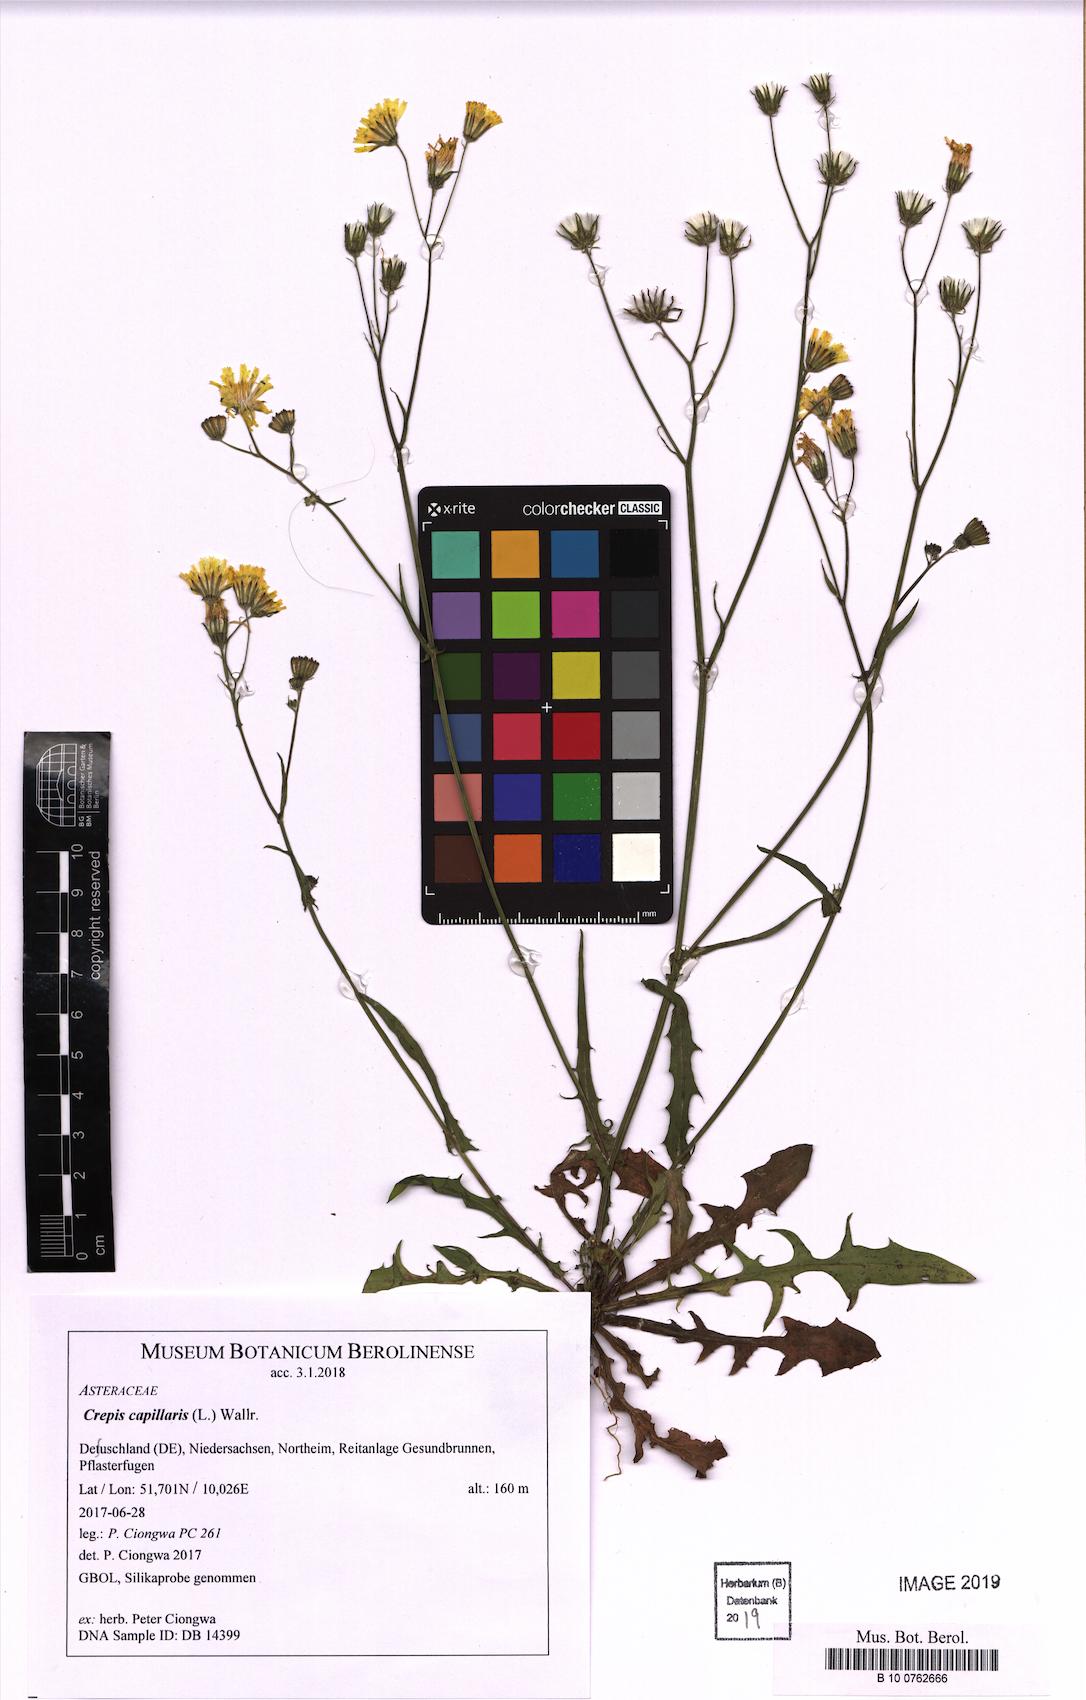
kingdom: Plantae
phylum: Tracheophyta
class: Magnoliopsida
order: Asterales
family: Asteraceae
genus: Crepis
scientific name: Crepis capillaris
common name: Smooth hawksbeard
